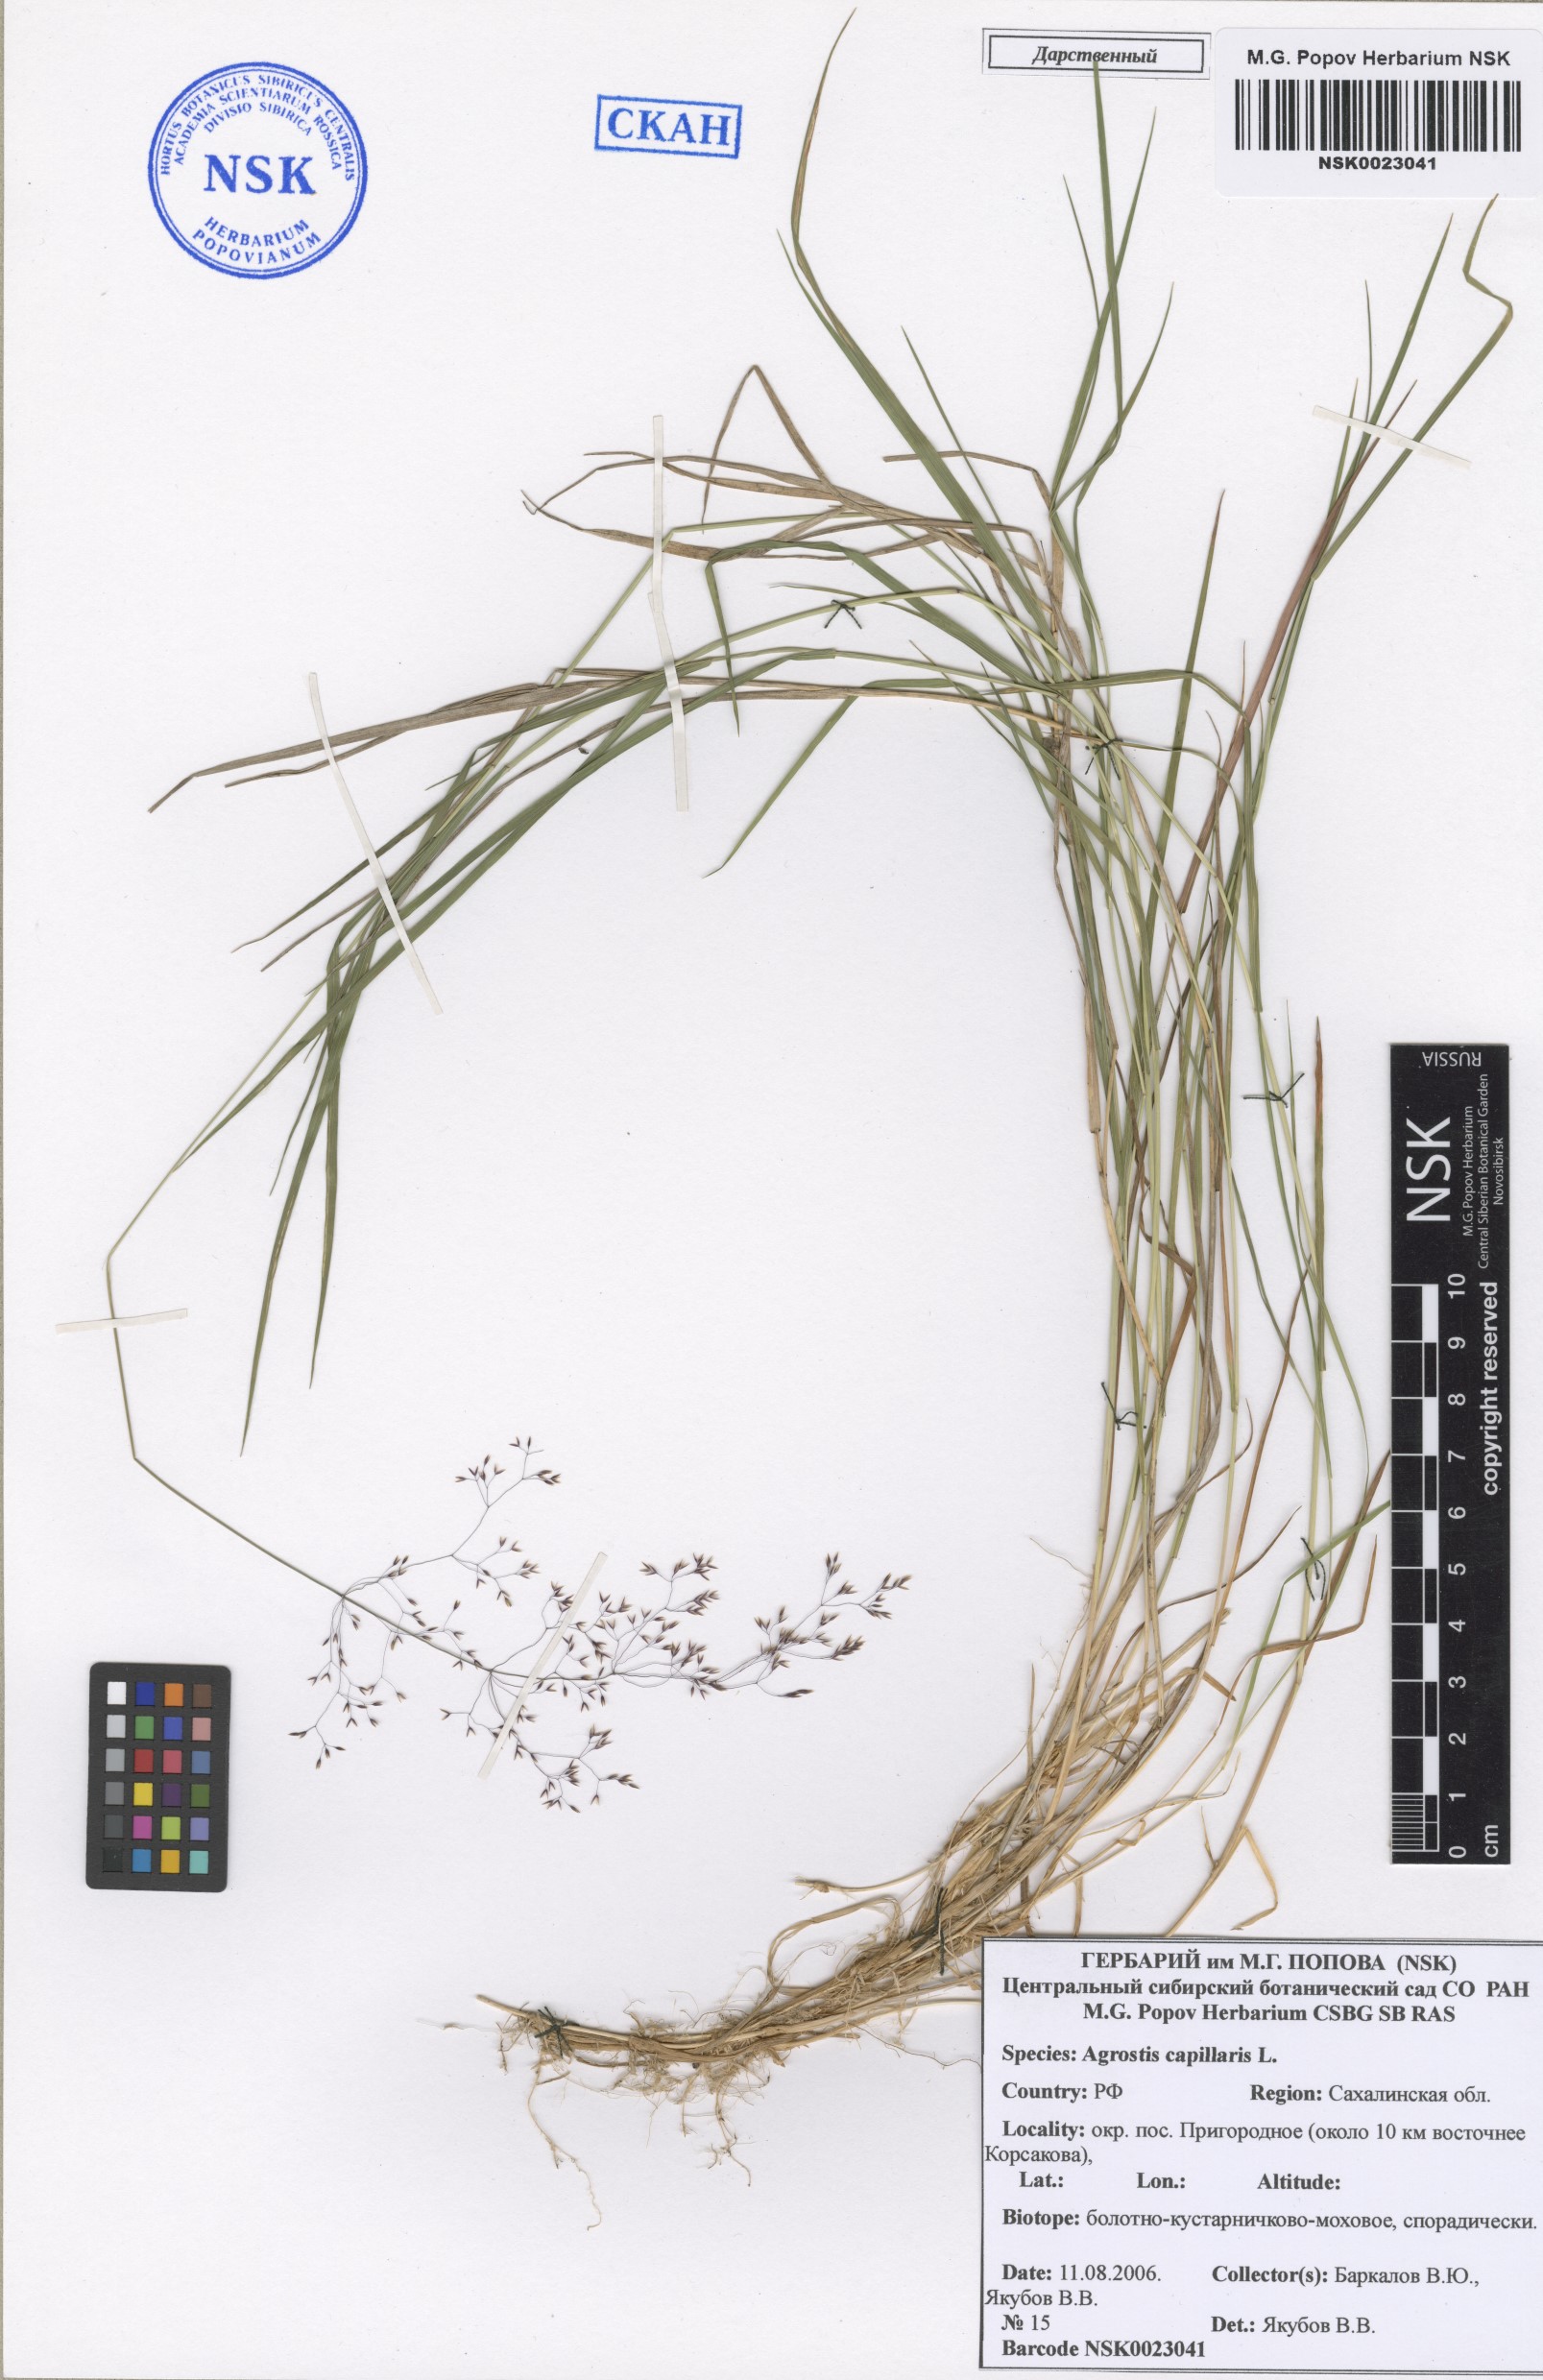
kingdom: Plantae
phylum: Tracheophyta
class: Liliopsida
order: Poales
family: Poaceae
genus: Agrostis
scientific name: Agrostis capillaris
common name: Colonial bentgrass
